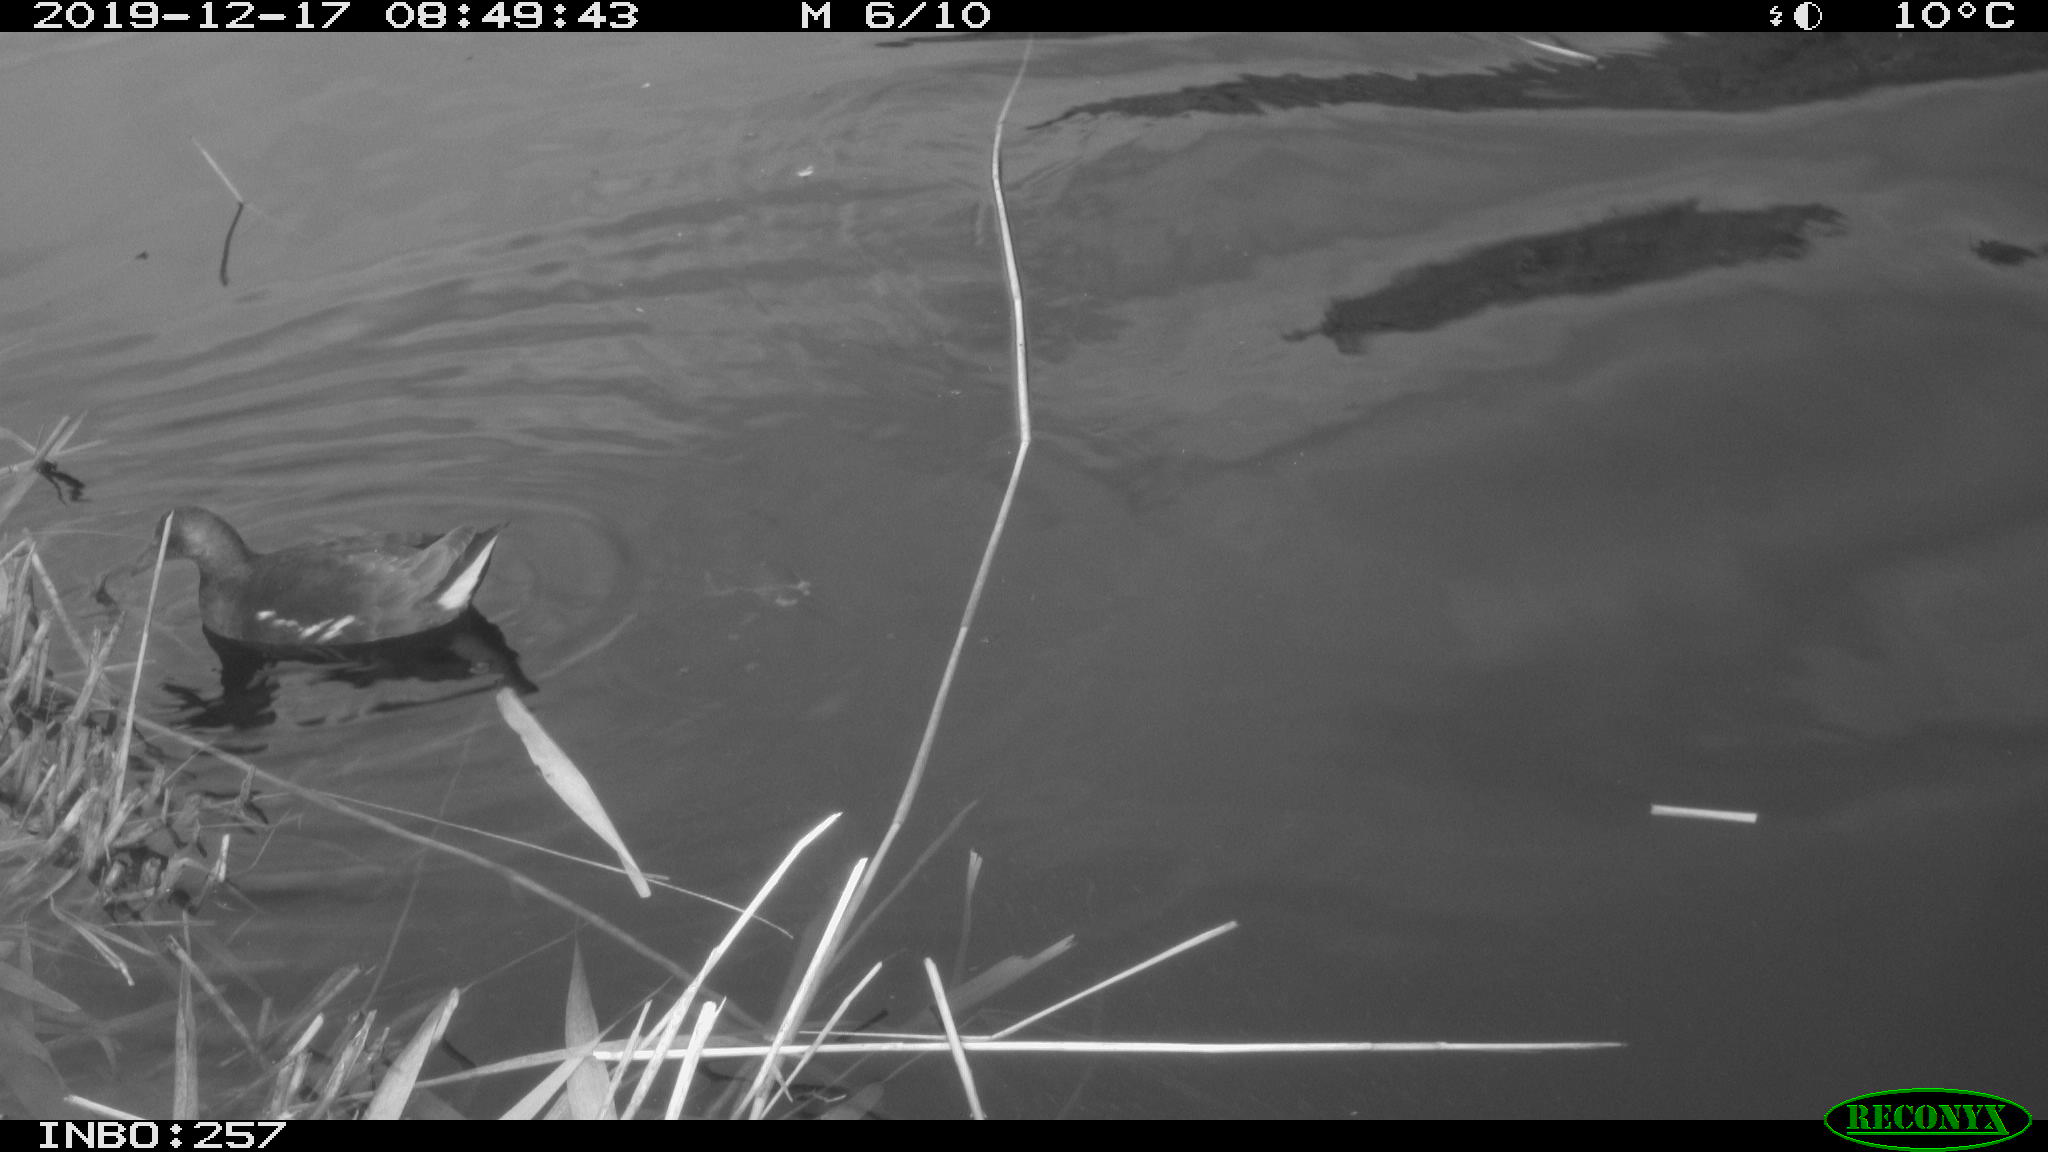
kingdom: Animalia
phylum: Chordata
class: Aves
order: Gruiformes
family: Rallidae
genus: Gallinula
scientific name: Gallinula chloropus
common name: Common moorhen
